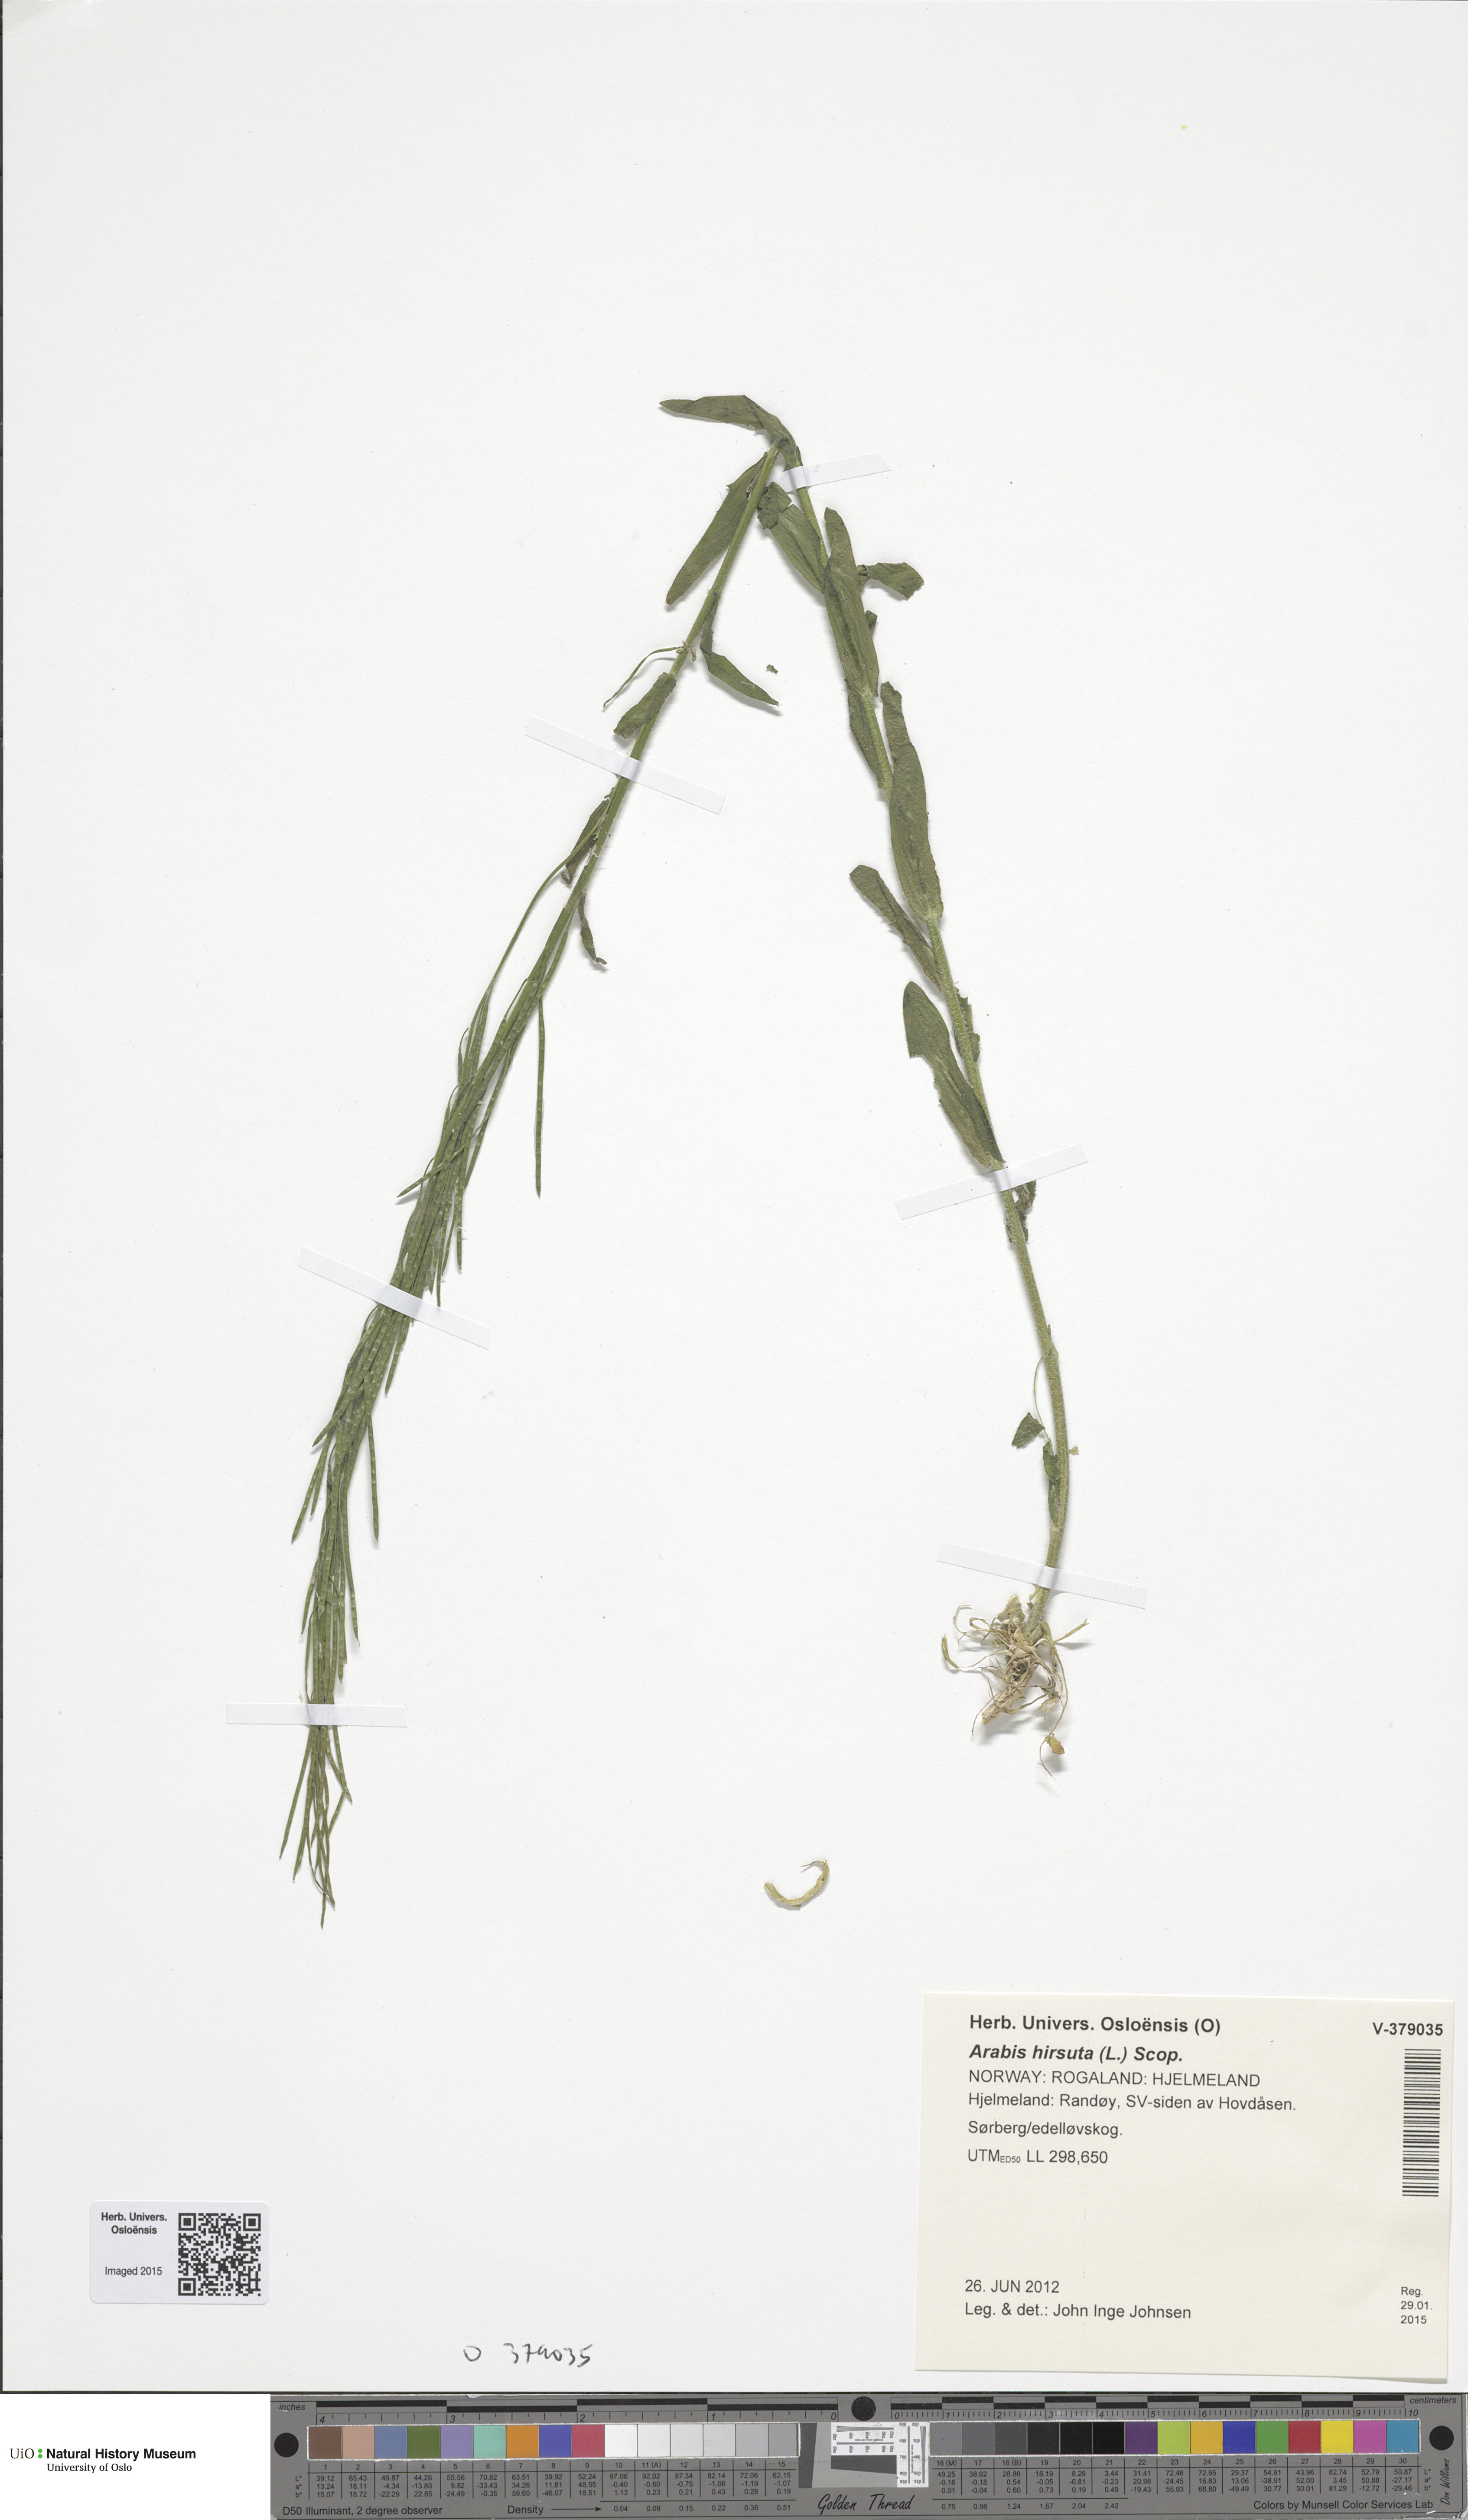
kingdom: Plantae
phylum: Tracheophyta
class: Magnoliopsida
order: Brassicales
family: Brassicaceae
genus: Arabis
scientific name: Arabis hirsuta
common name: Hairy rock-cress
